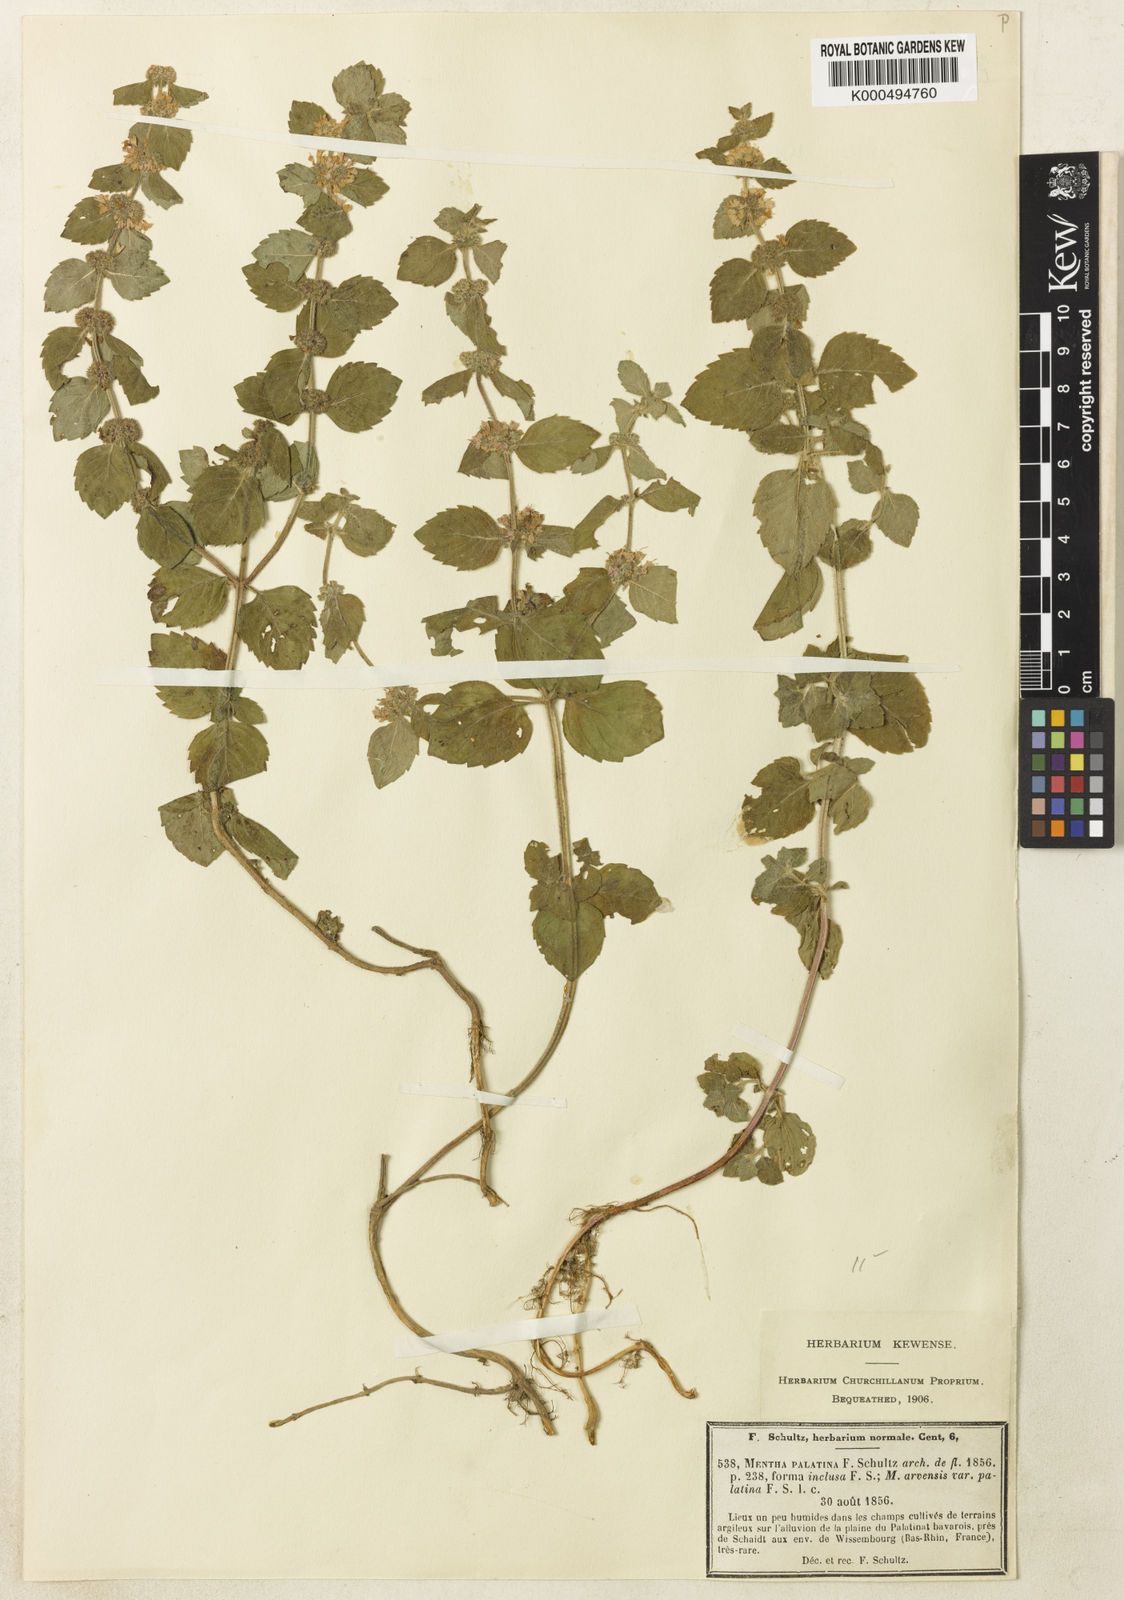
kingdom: Plantae
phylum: Tracheophyta
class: Magnoliopsida
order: Lamiales
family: Lamiaceae
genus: Mentha
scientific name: Mentha arvensis
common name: Corn mint
